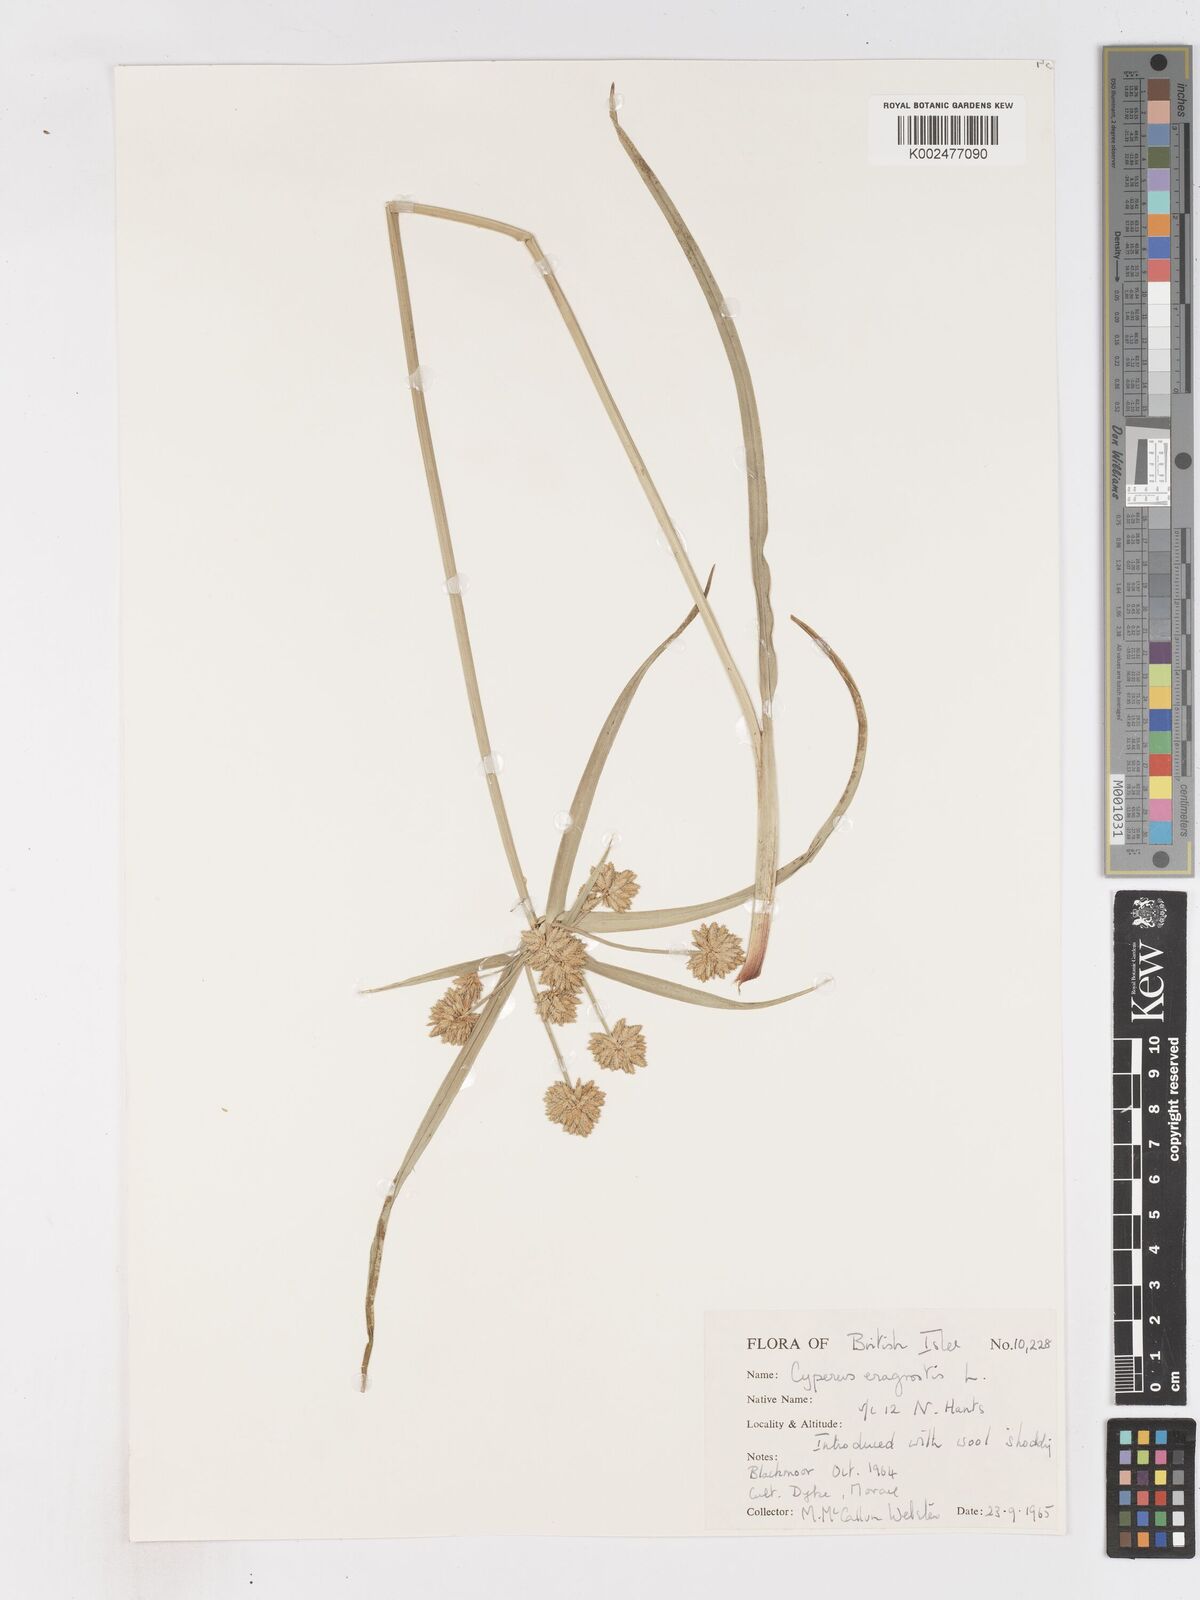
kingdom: Plantae
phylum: Tracheophyta
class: Liliopsida
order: Poales
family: Cyperaceae
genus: Cyperus
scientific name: Cyperus eragrostis
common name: Tall flatsedge
